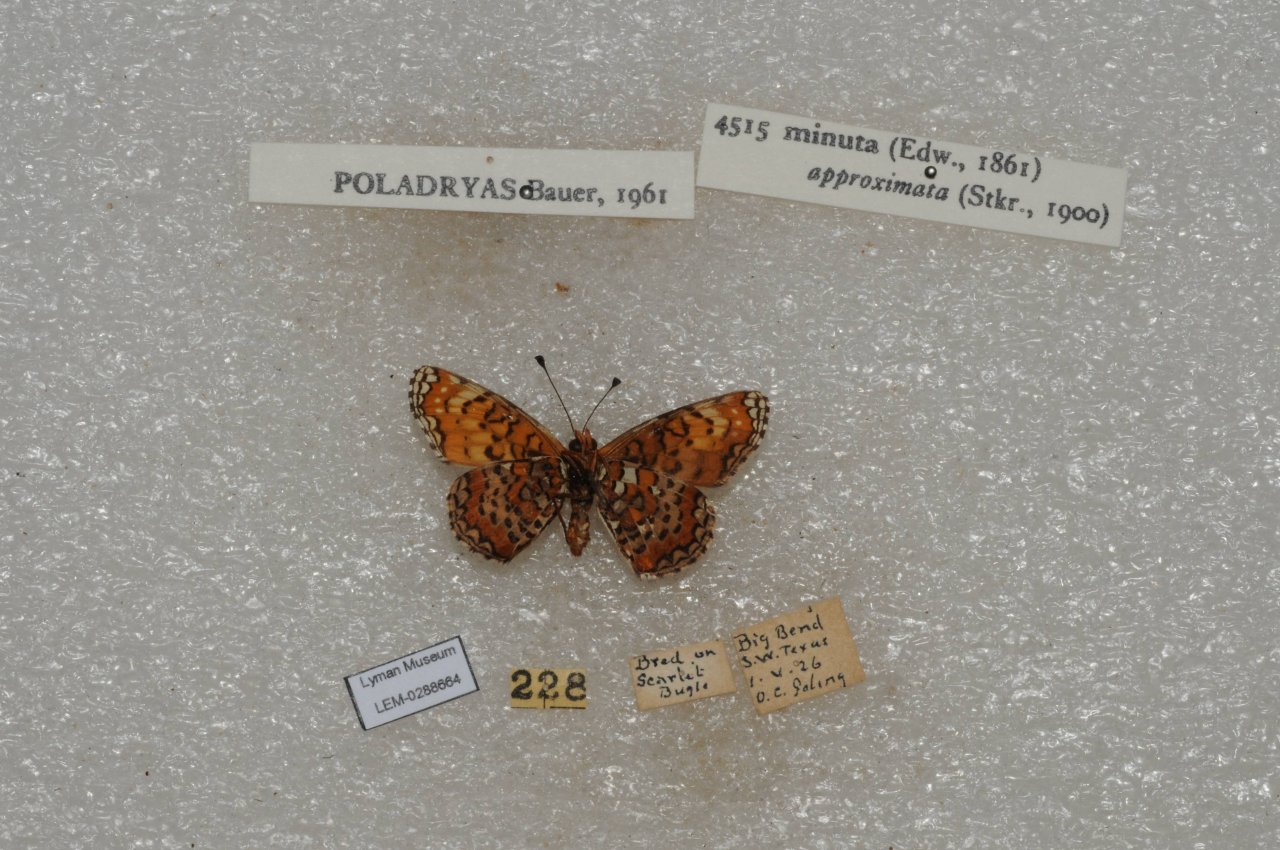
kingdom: Animalia
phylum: Arthropoda
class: Insecta
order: Lepidoptera
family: Nymphalidae
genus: Poladryas
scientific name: Poladryas minuta
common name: Dotted Checkerspot
